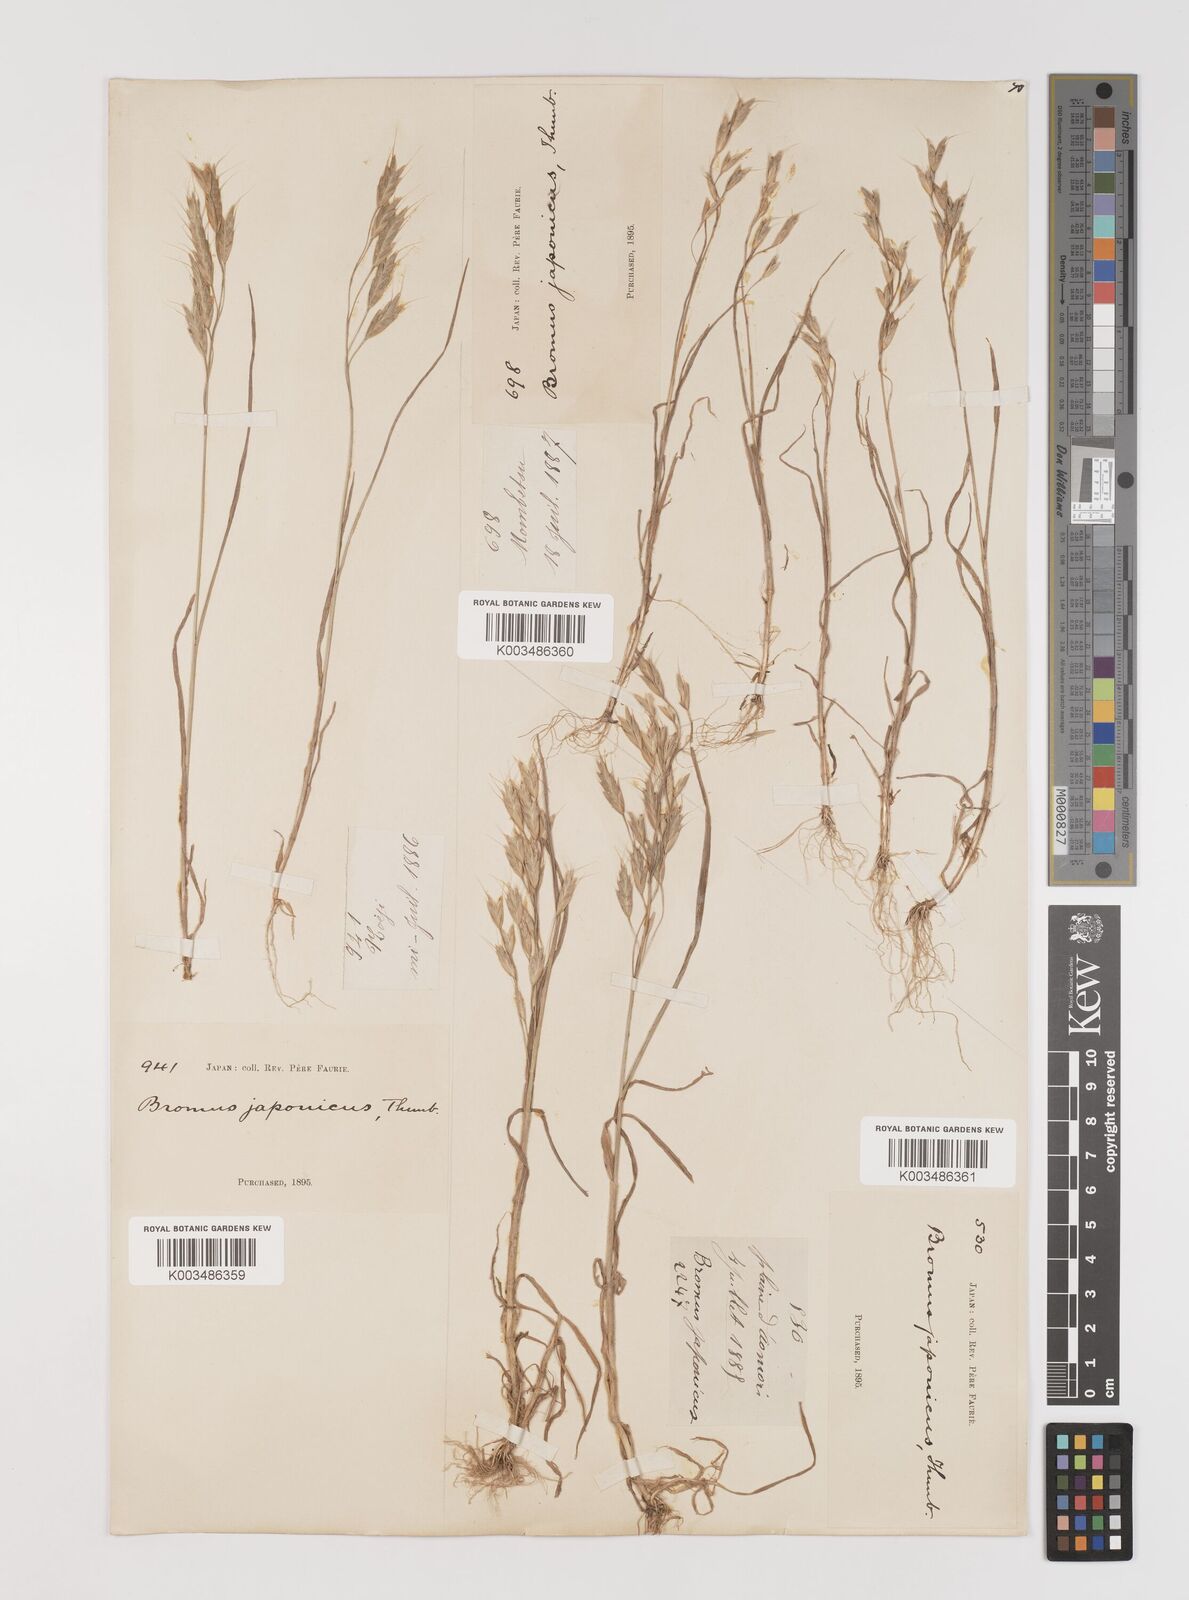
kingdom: Plantae
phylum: Tracheophyta
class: Liliopsida
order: Poales
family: Poaceae
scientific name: Poaceae
